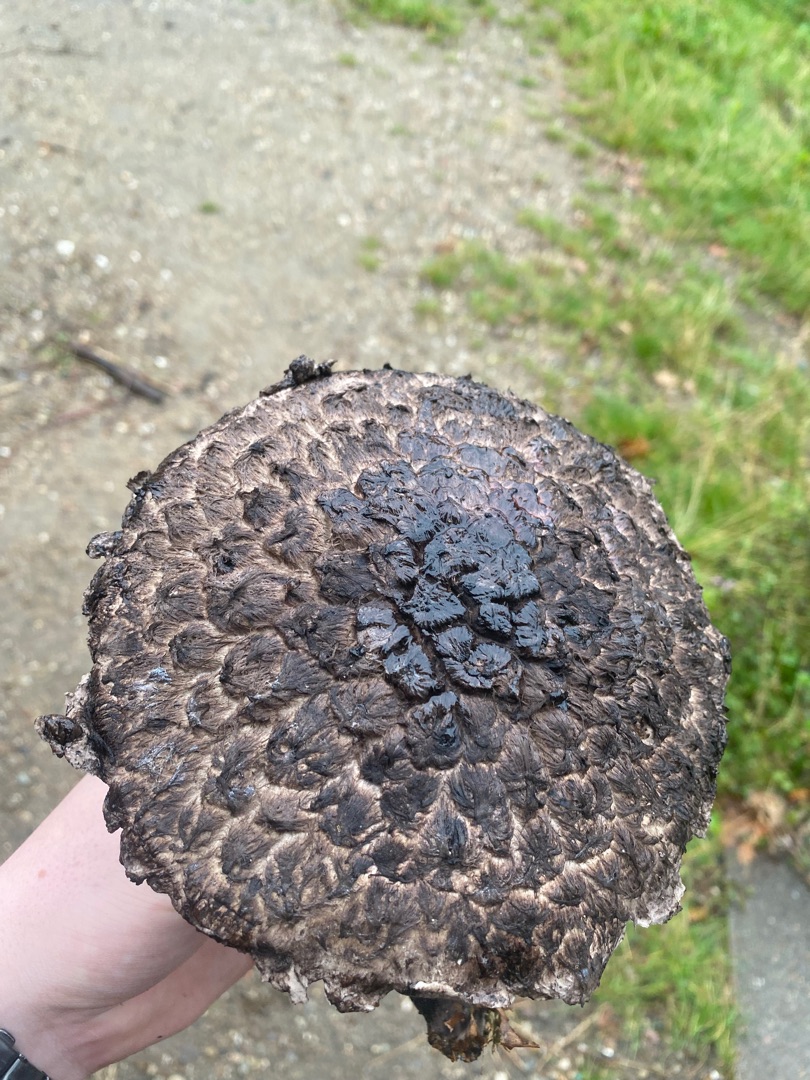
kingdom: Fungi
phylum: Basidiomycota
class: Agaricomycetes
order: Boletales
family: Boletaceae
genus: Strobilomyces
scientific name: Strobilomyces strobilaceus
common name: Koglerørhat
